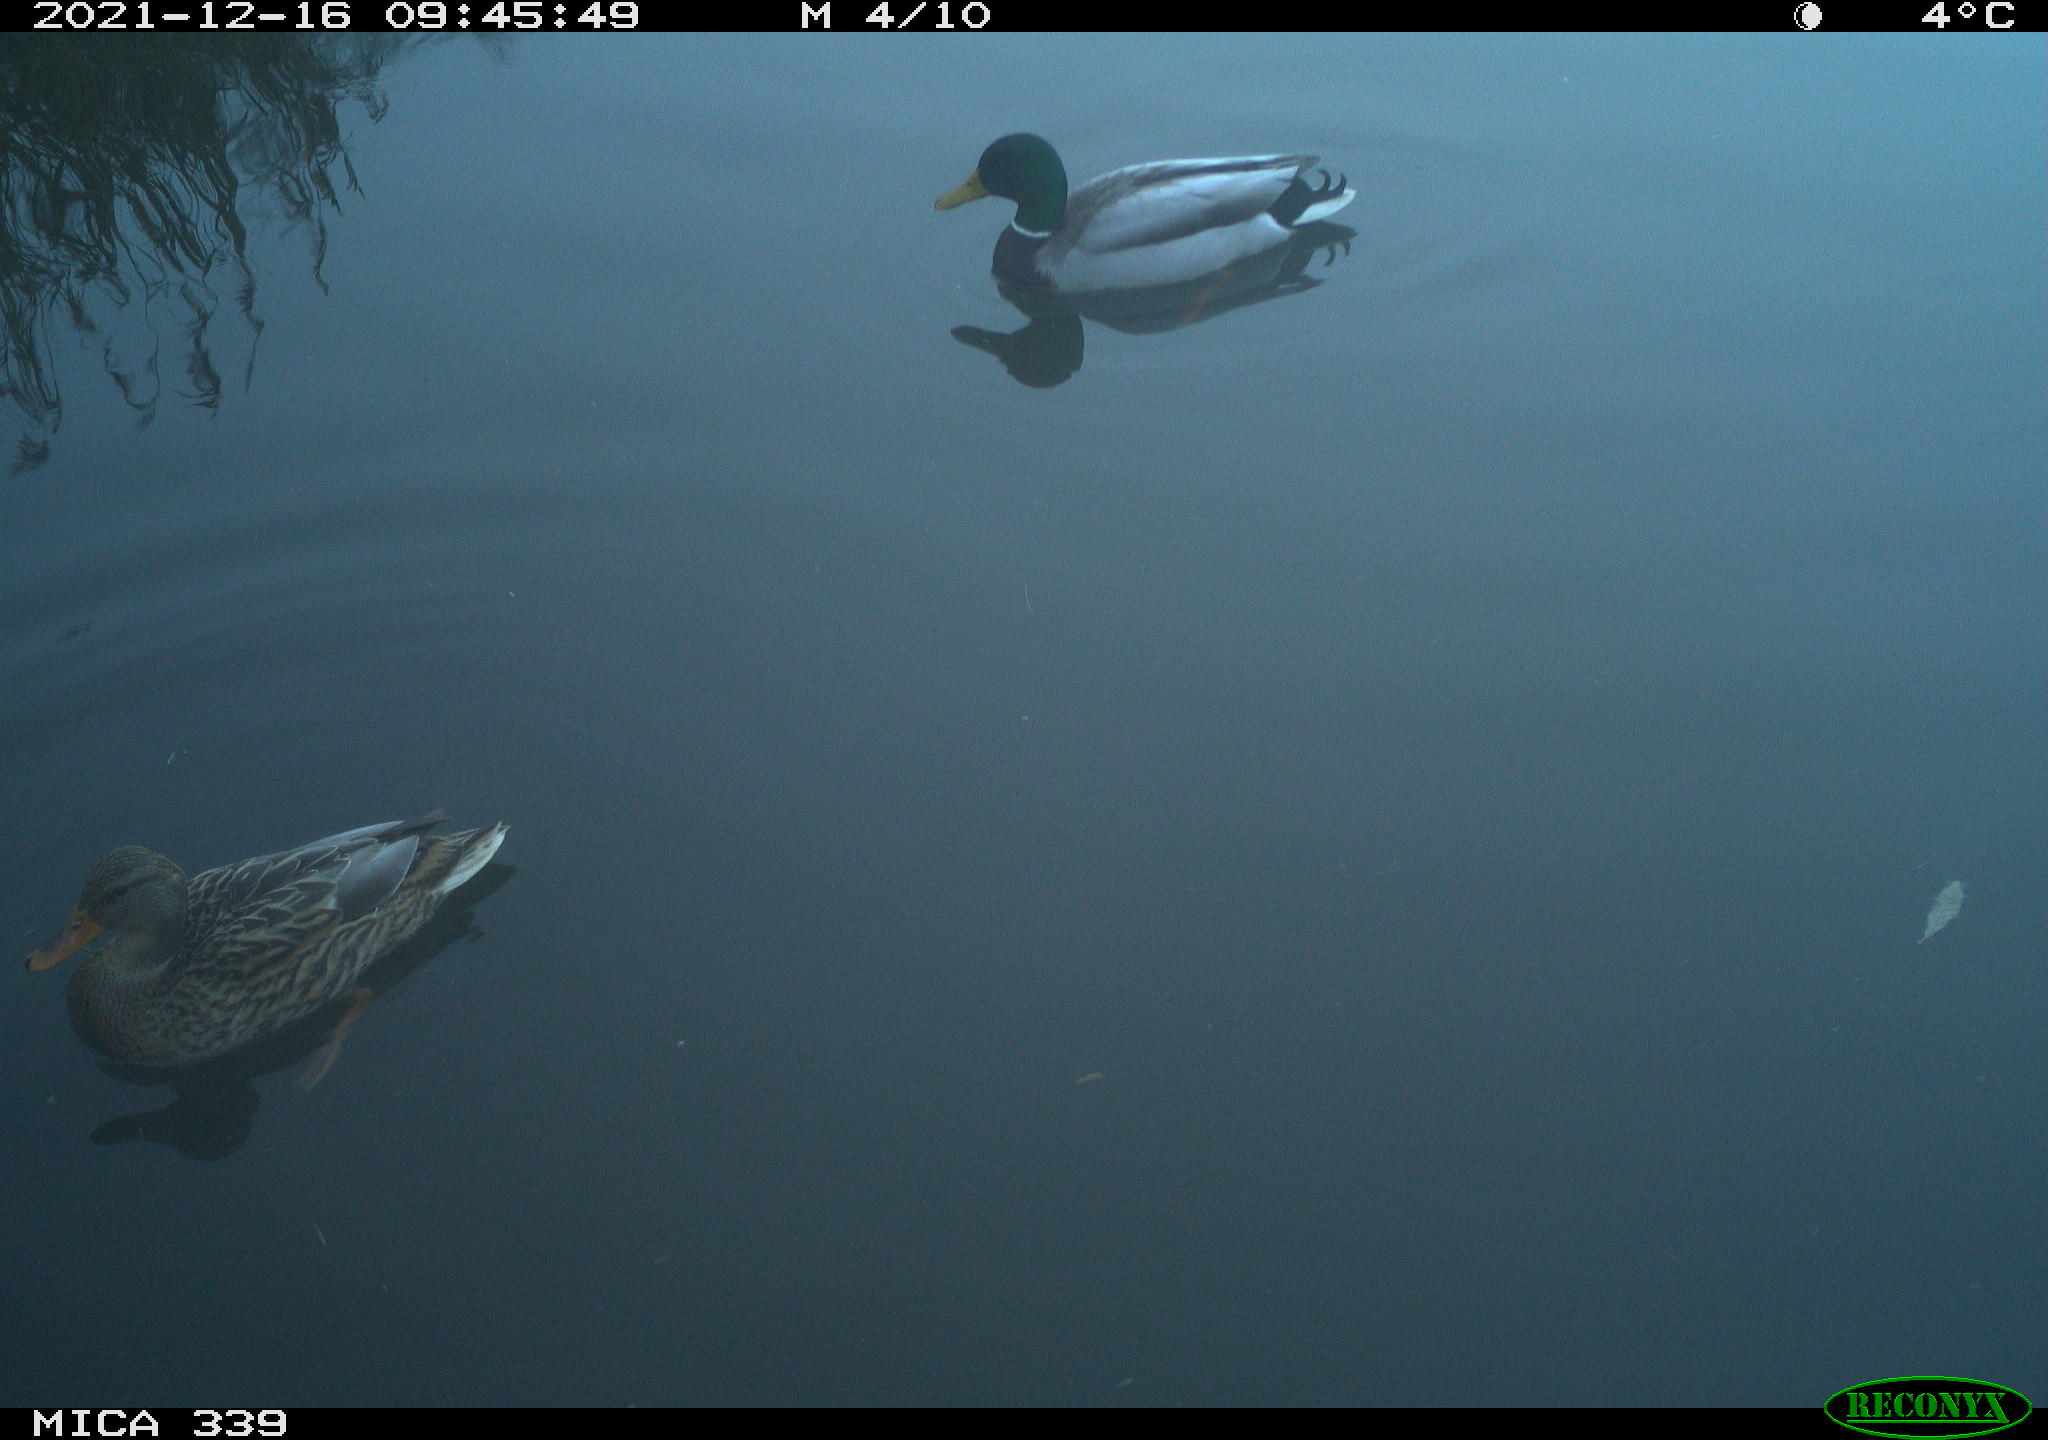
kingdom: Animalia
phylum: Chordata
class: Aves
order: Anseriformes
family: Anatidae
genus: Anas
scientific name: Anas platyrhynchos
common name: Mallard
